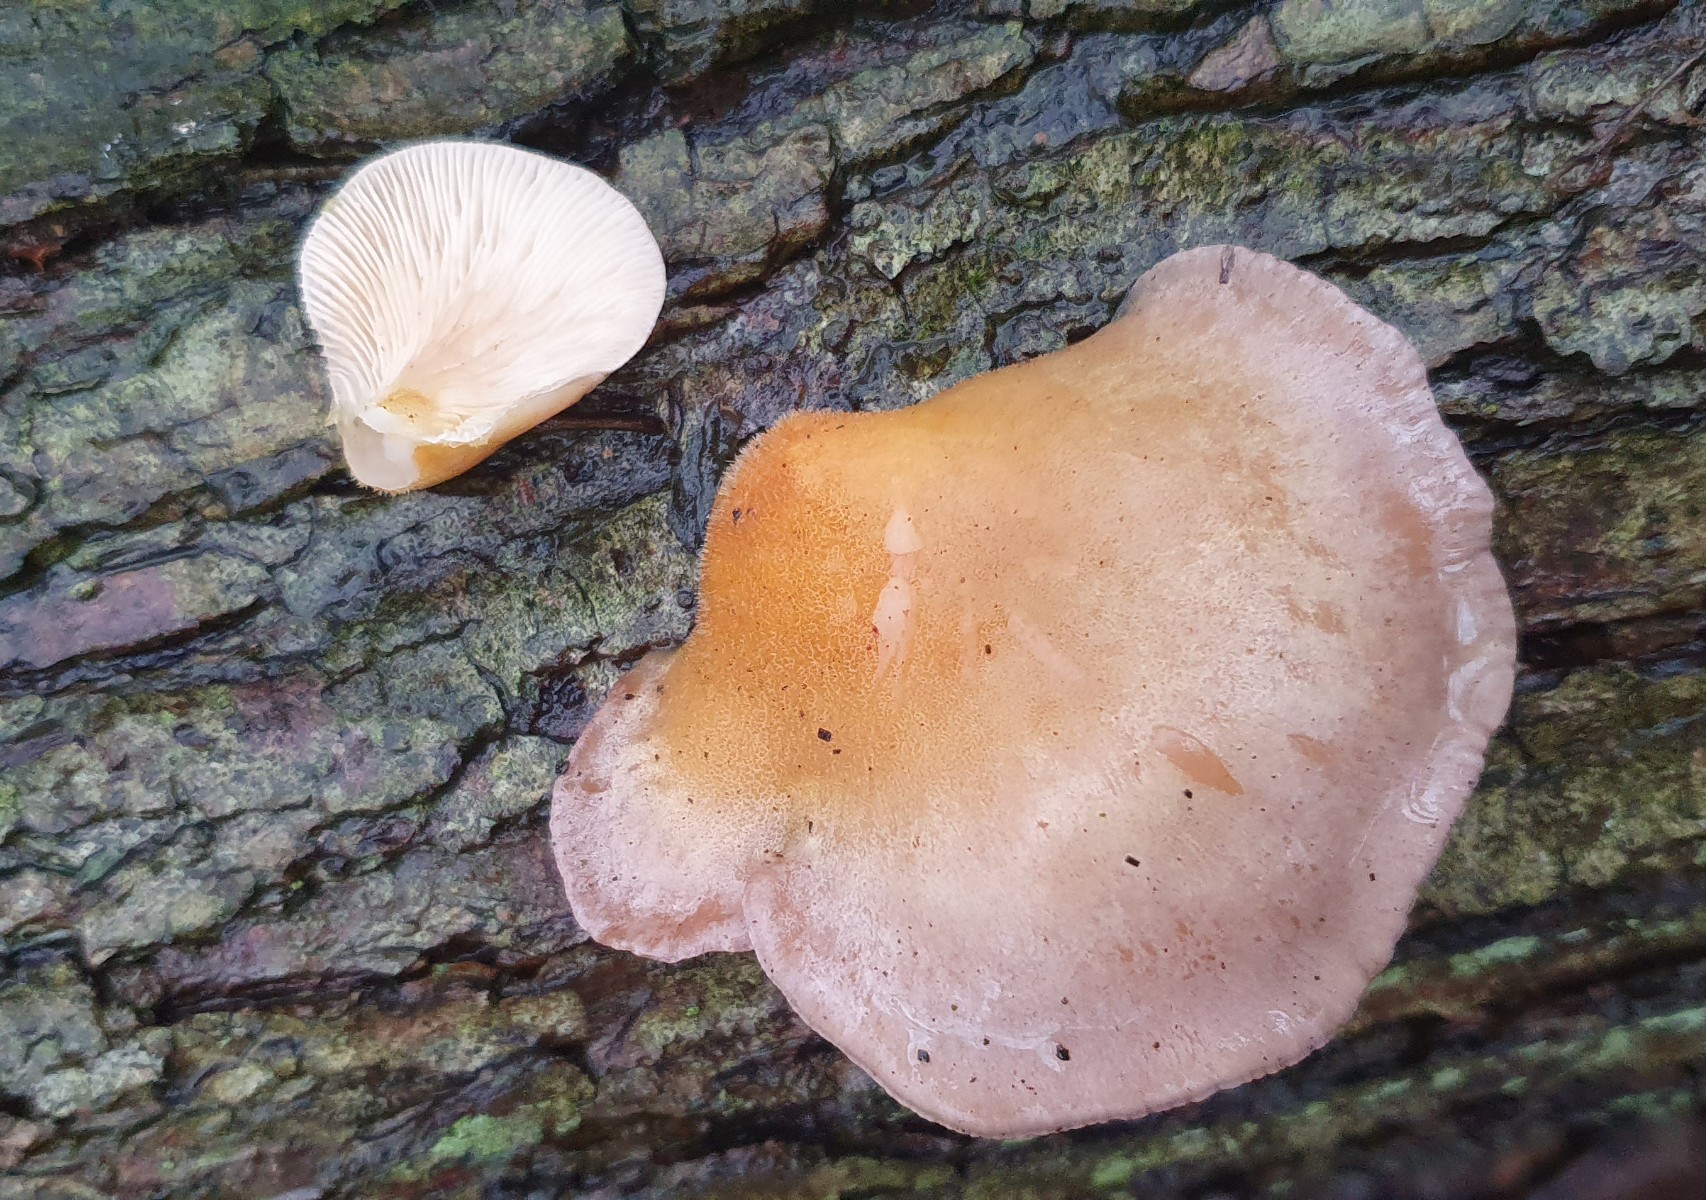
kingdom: Fungi
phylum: Basidiomycota
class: Agaricomycetes
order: Agaricales
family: Sarcomyxaceae
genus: Sarcomyxa
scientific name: Sarcomyxa serotina
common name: gummihat
